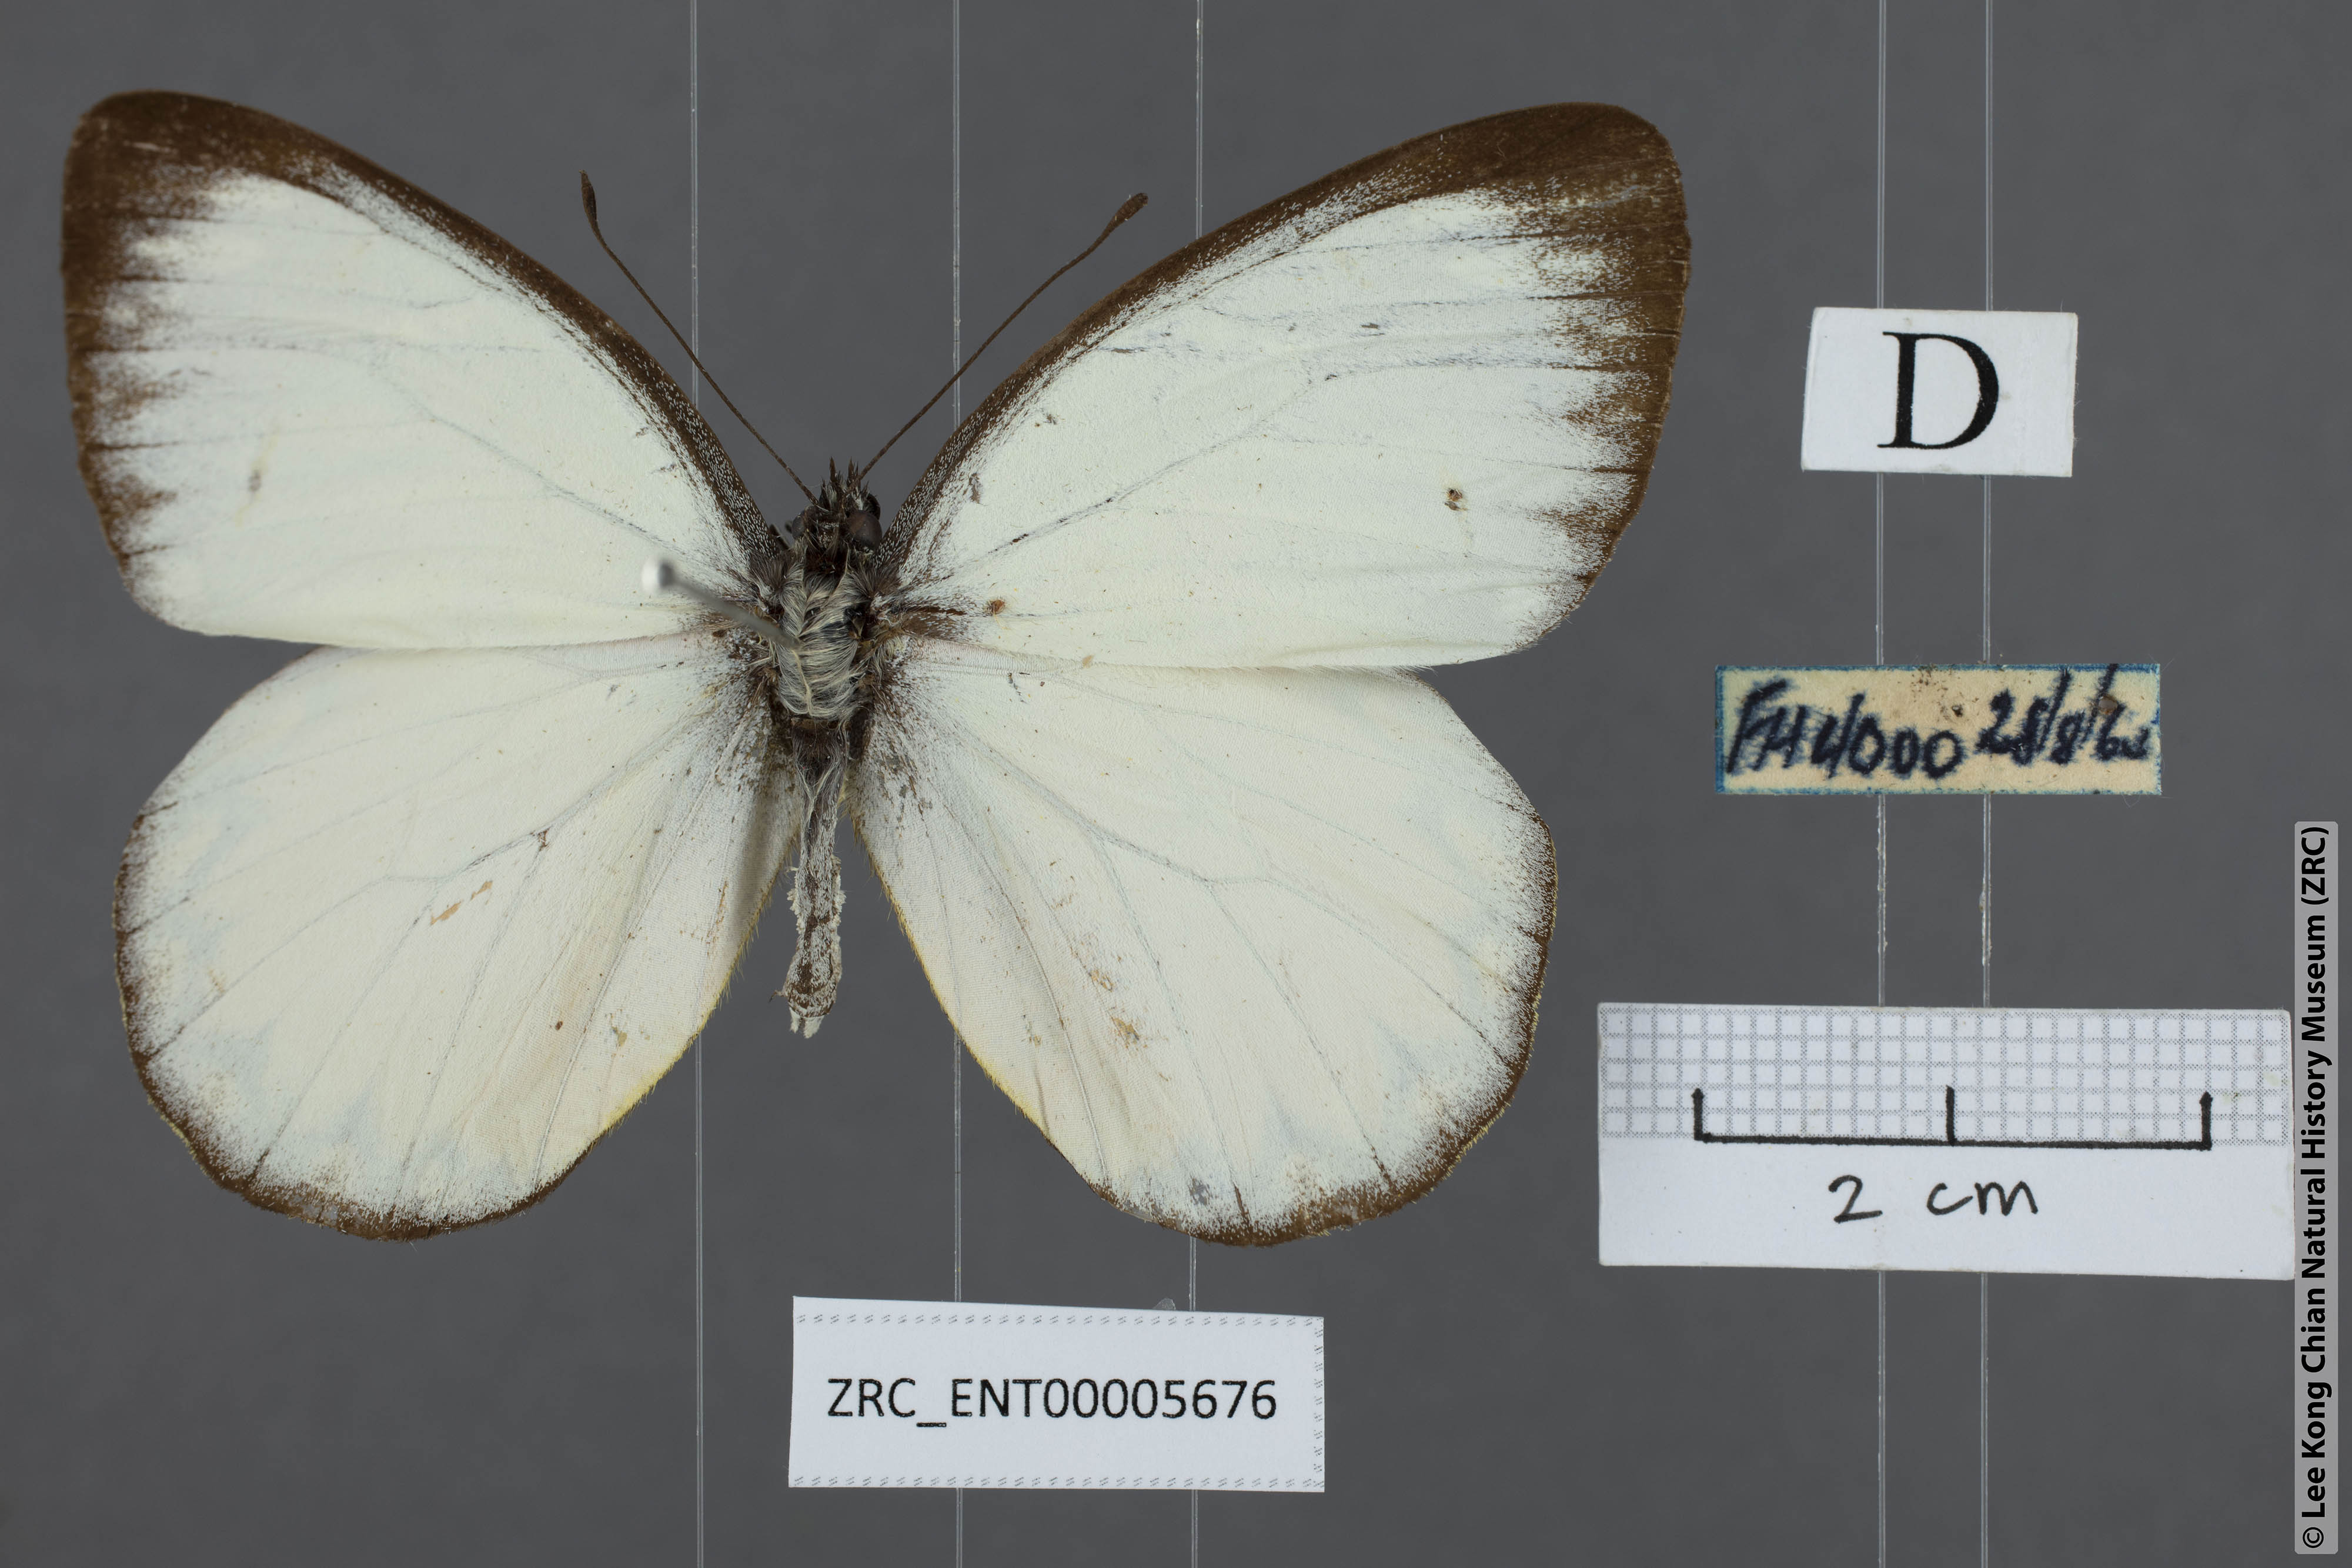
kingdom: Animalia
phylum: Arthropoda
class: Insecta
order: Lepidoptera
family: Pieridae
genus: Delias
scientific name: Delias descombesi
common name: Red-spot jezebel
